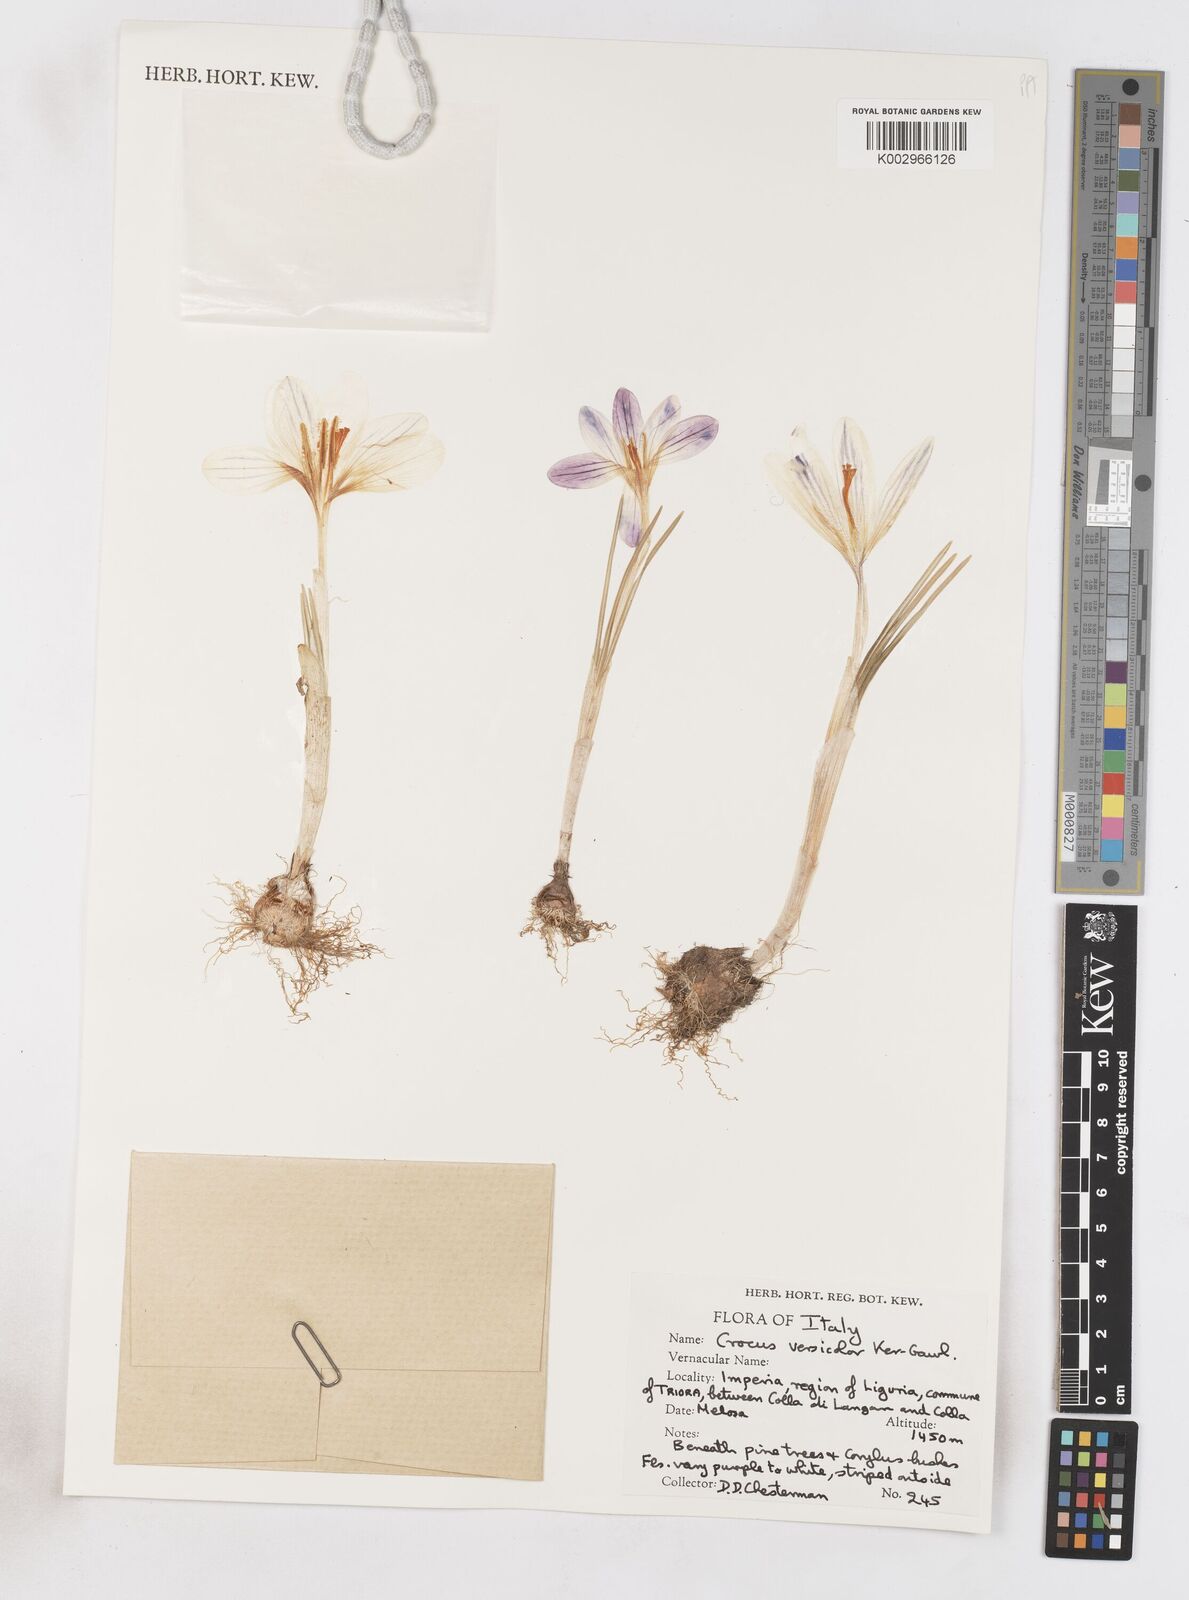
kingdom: Plantae
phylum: Tracheophyta
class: Liliopsida
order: Asparagales
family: Iridaceae
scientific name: Iridaceae
